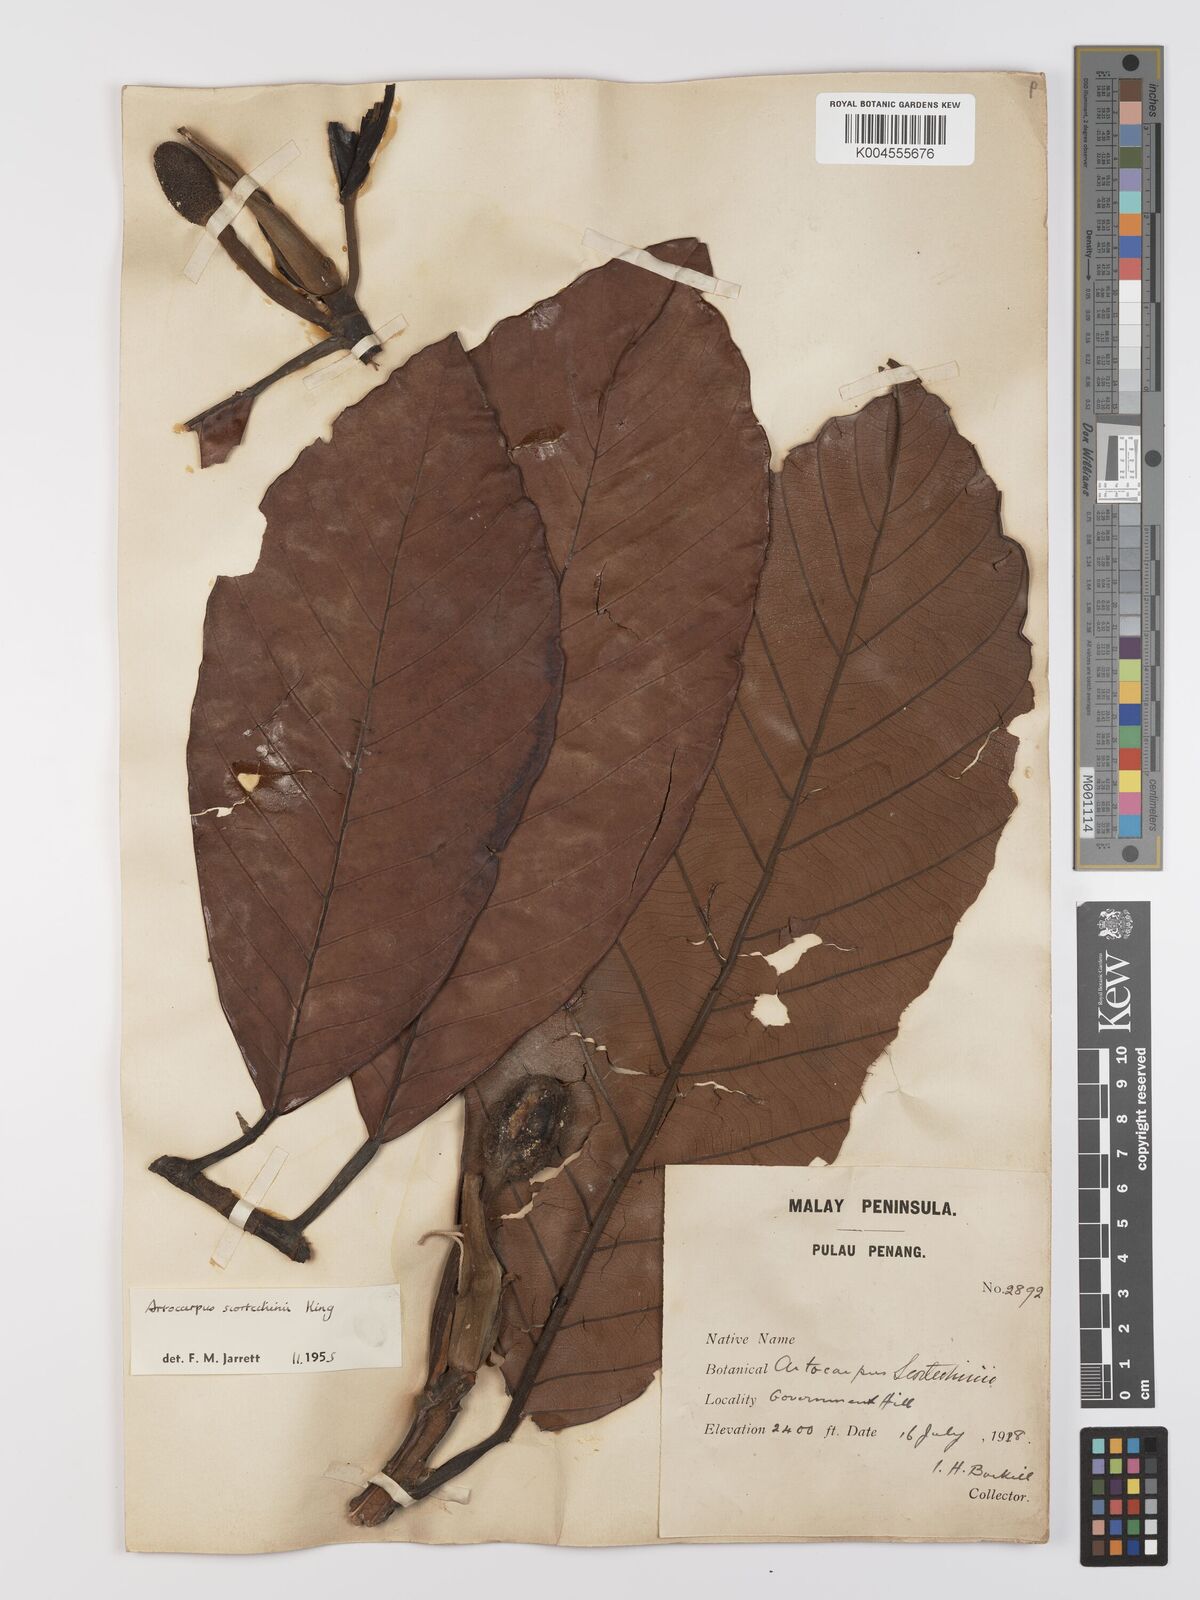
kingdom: Plantae
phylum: Tracheophyta
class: Magnoliopsida
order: Rosales
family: Moraceae
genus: Artocarpus
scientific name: Artocarpus elasticus
